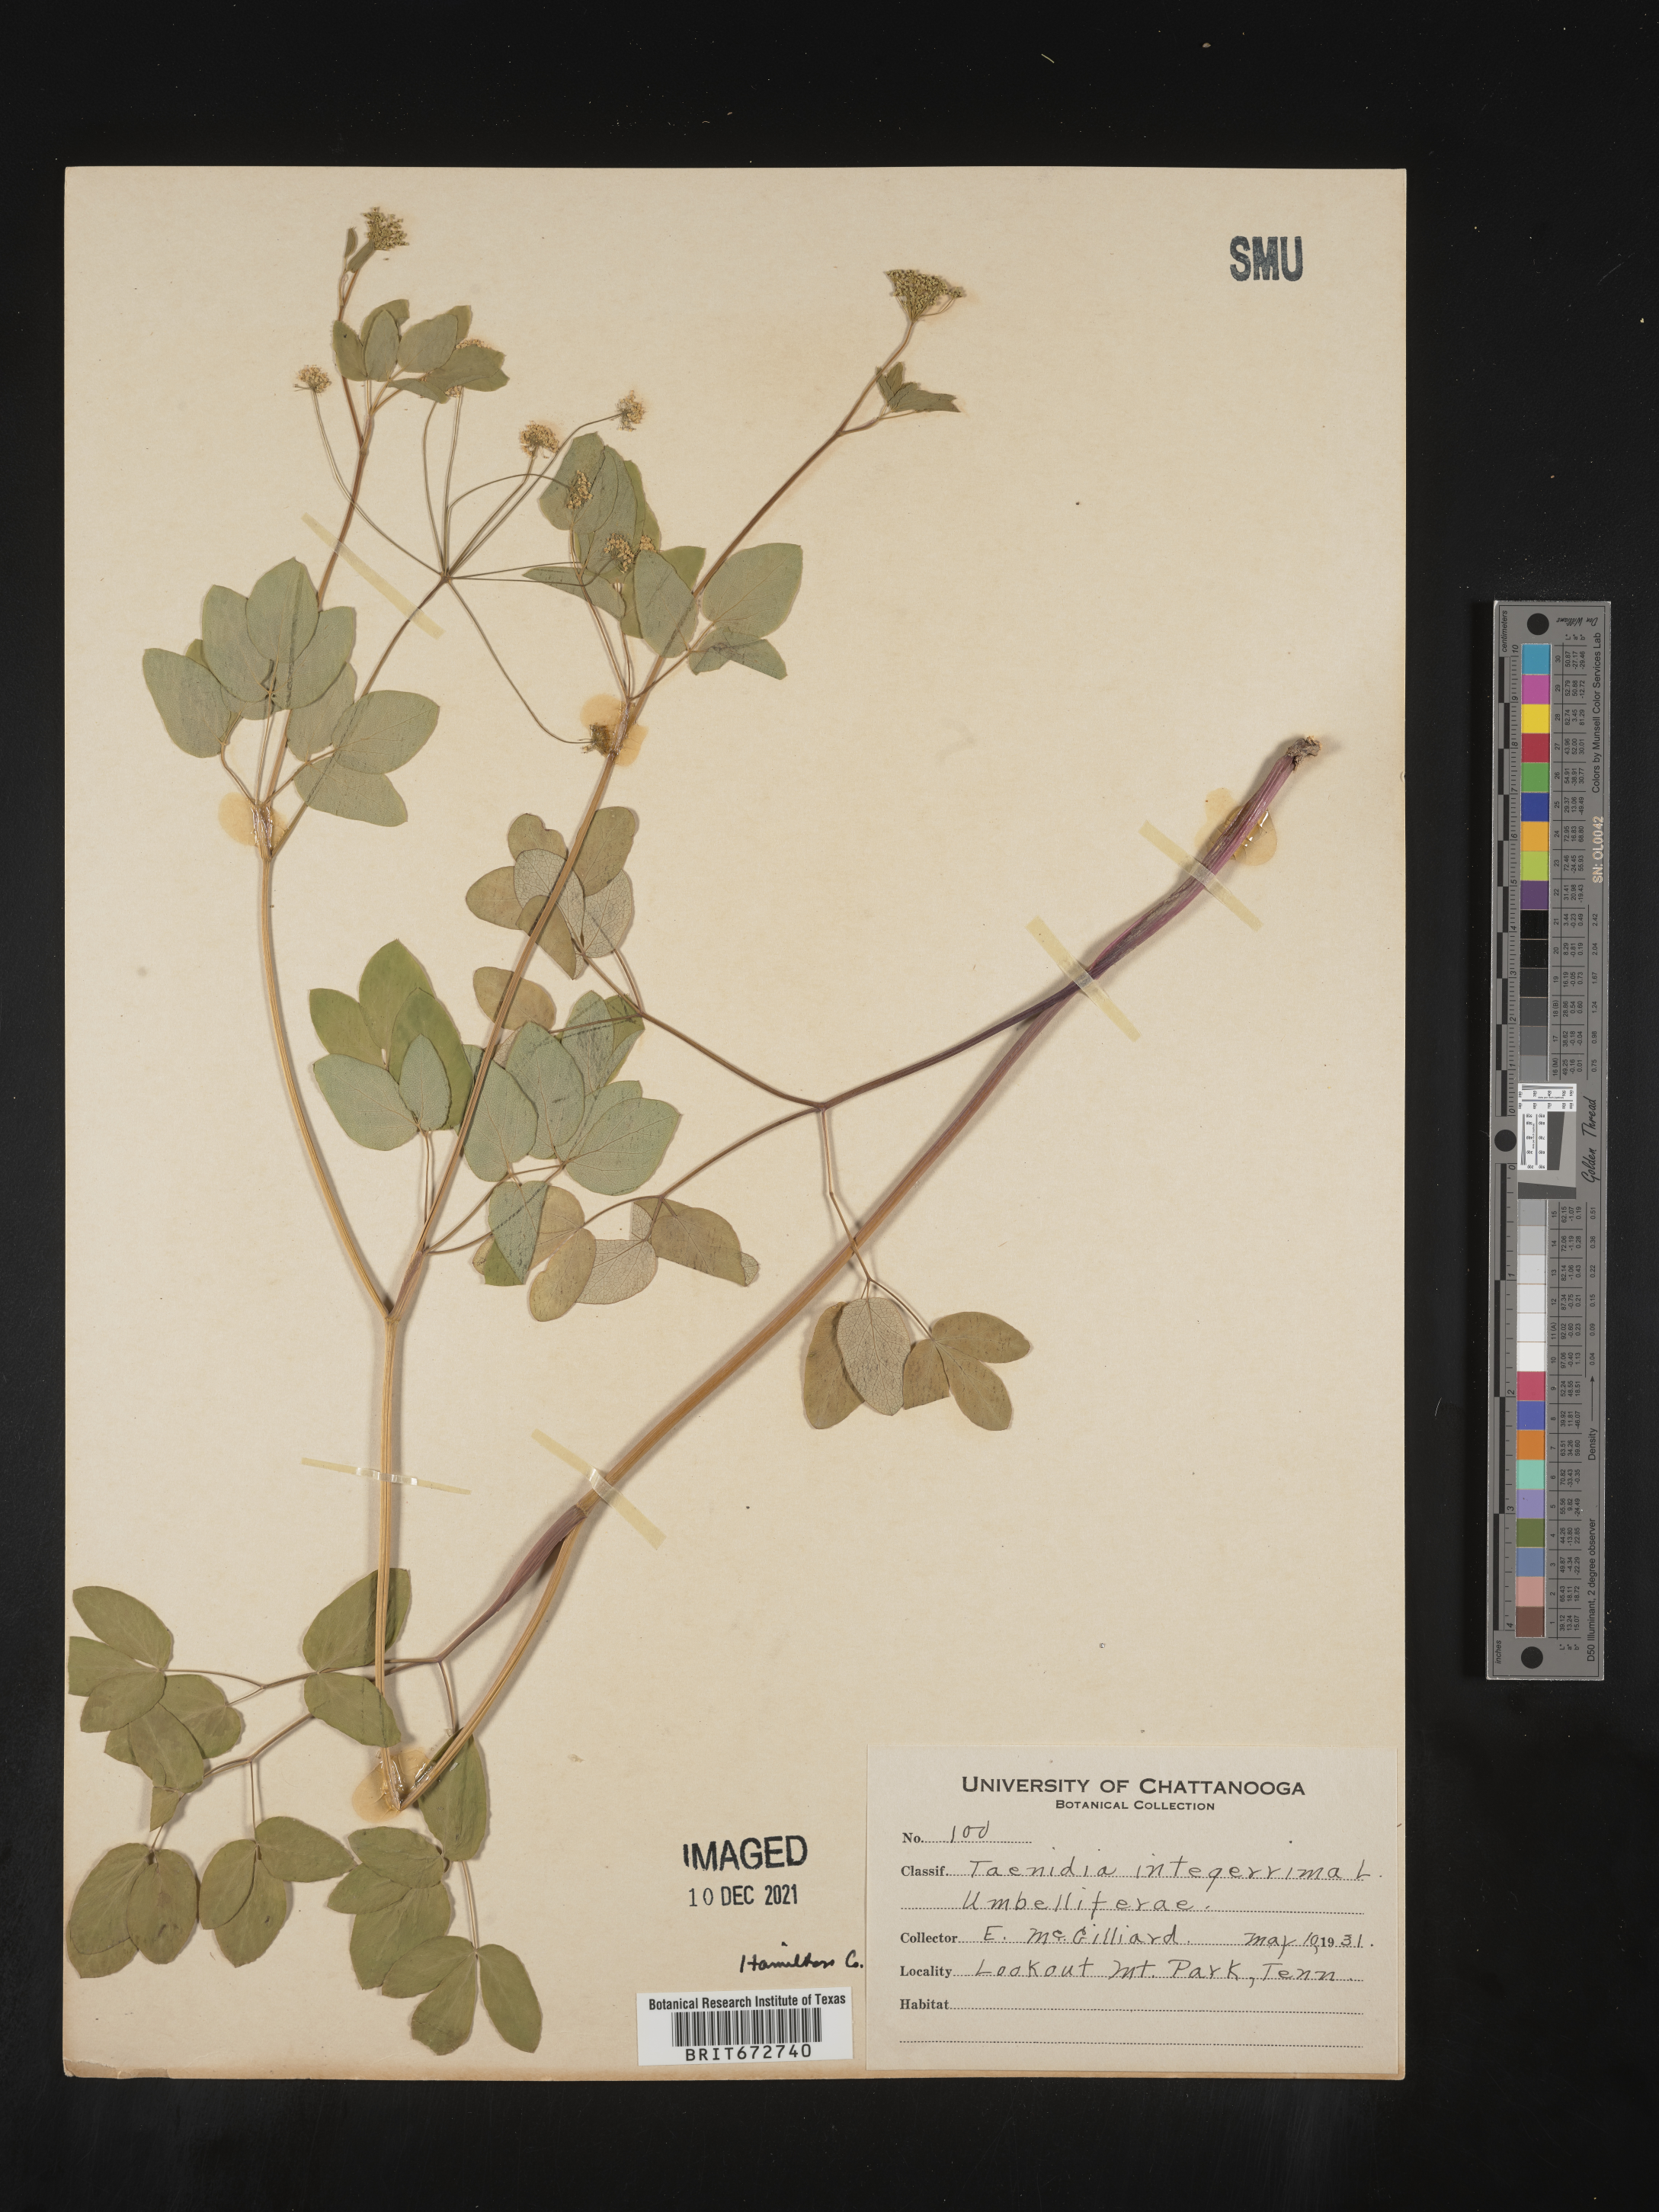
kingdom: Plantae
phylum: Tracheophyta
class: Magnoliopsida
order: Apiales
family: Apiaceae
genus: Taenidia
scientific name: Taenidia
